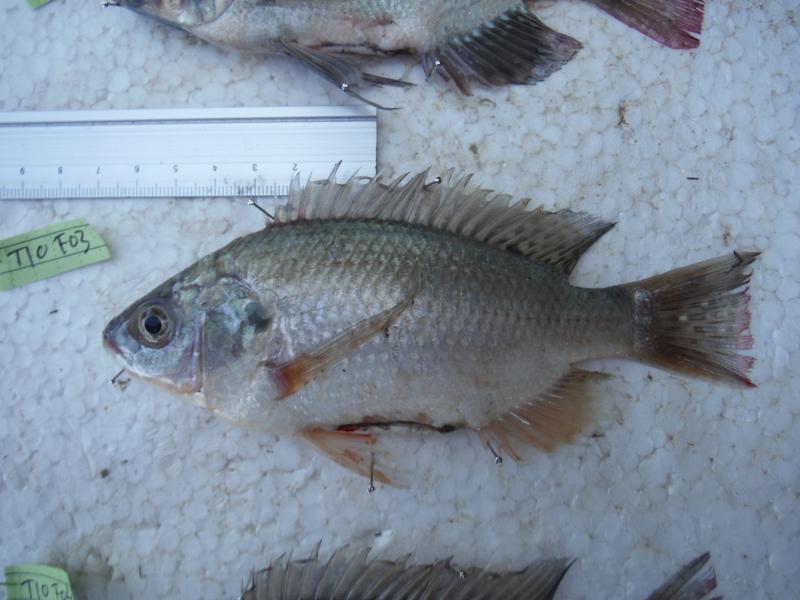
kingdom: Animalia
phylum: Chordata
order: Perciformes
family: Cichlidae
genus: Oreochromis
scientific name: Oreochromis esculentus
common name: Carp
